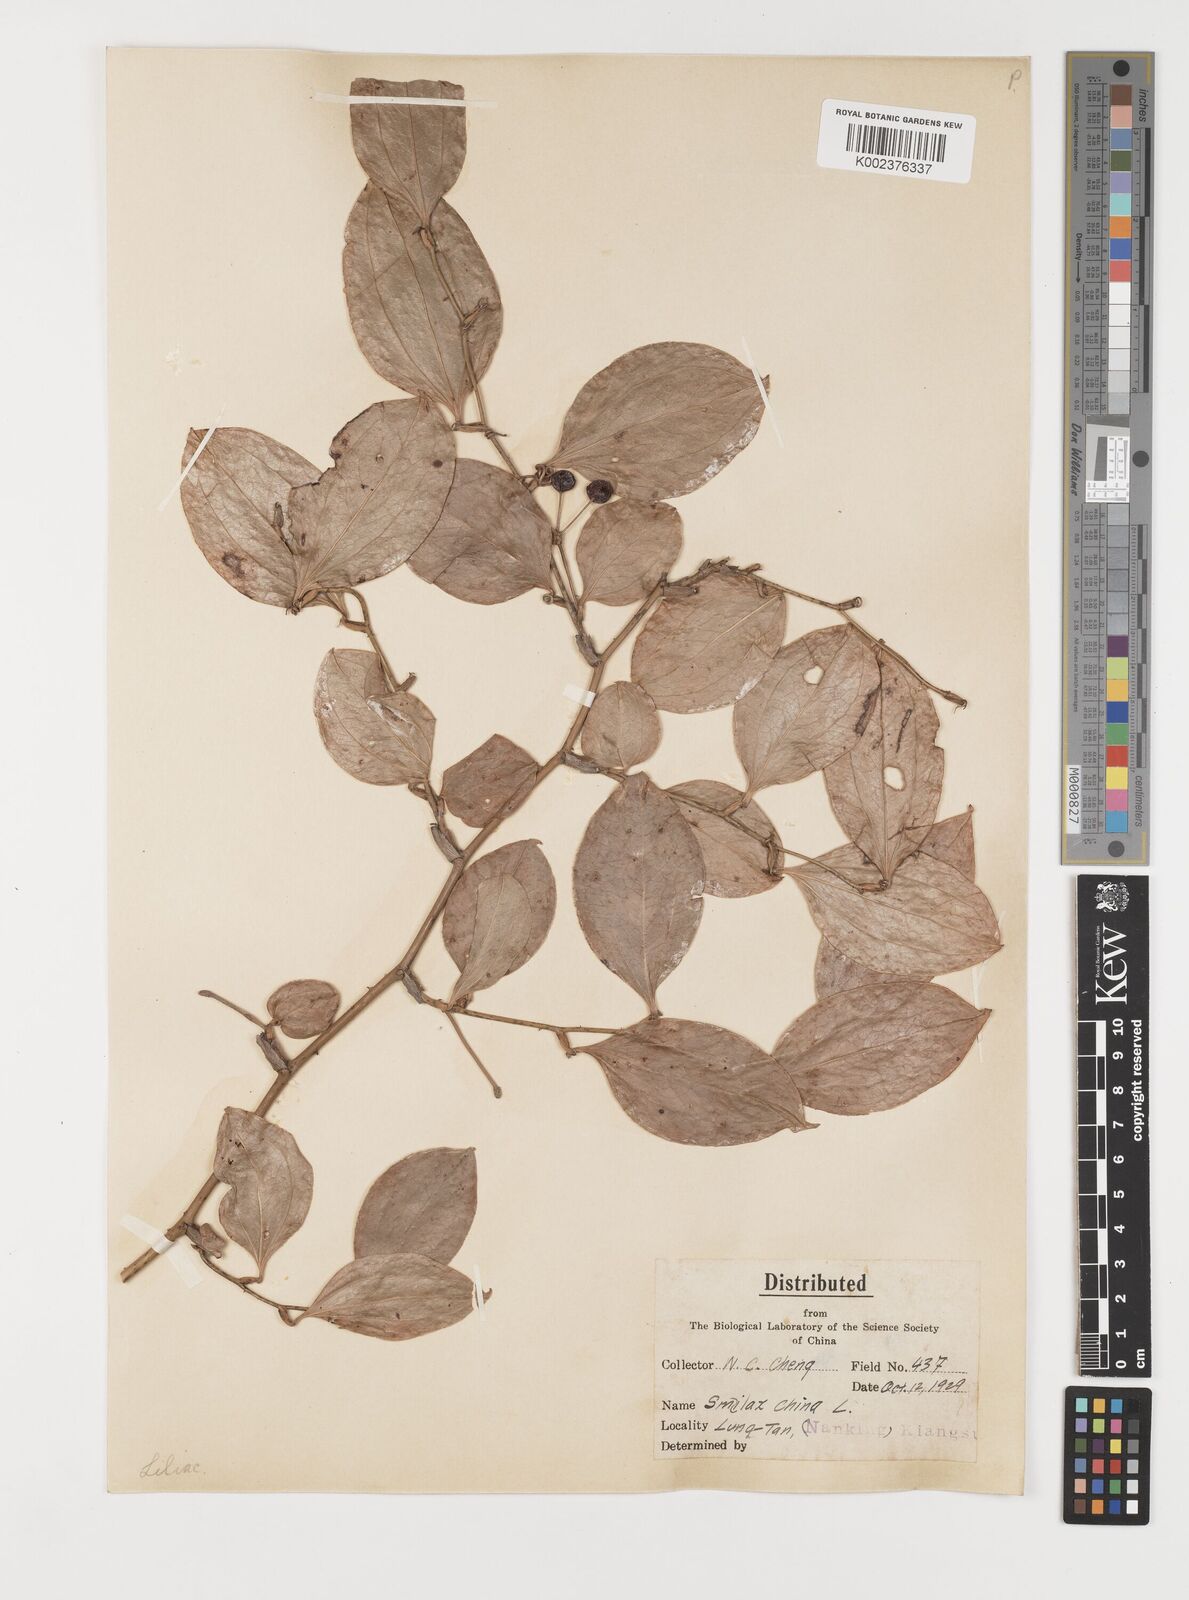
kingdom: Plantae
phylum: Tracheophyta
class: Liliopsida
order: Liliales
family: Smilacaceae
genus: Smilax
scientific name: Smilax china
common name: Chinaroot
